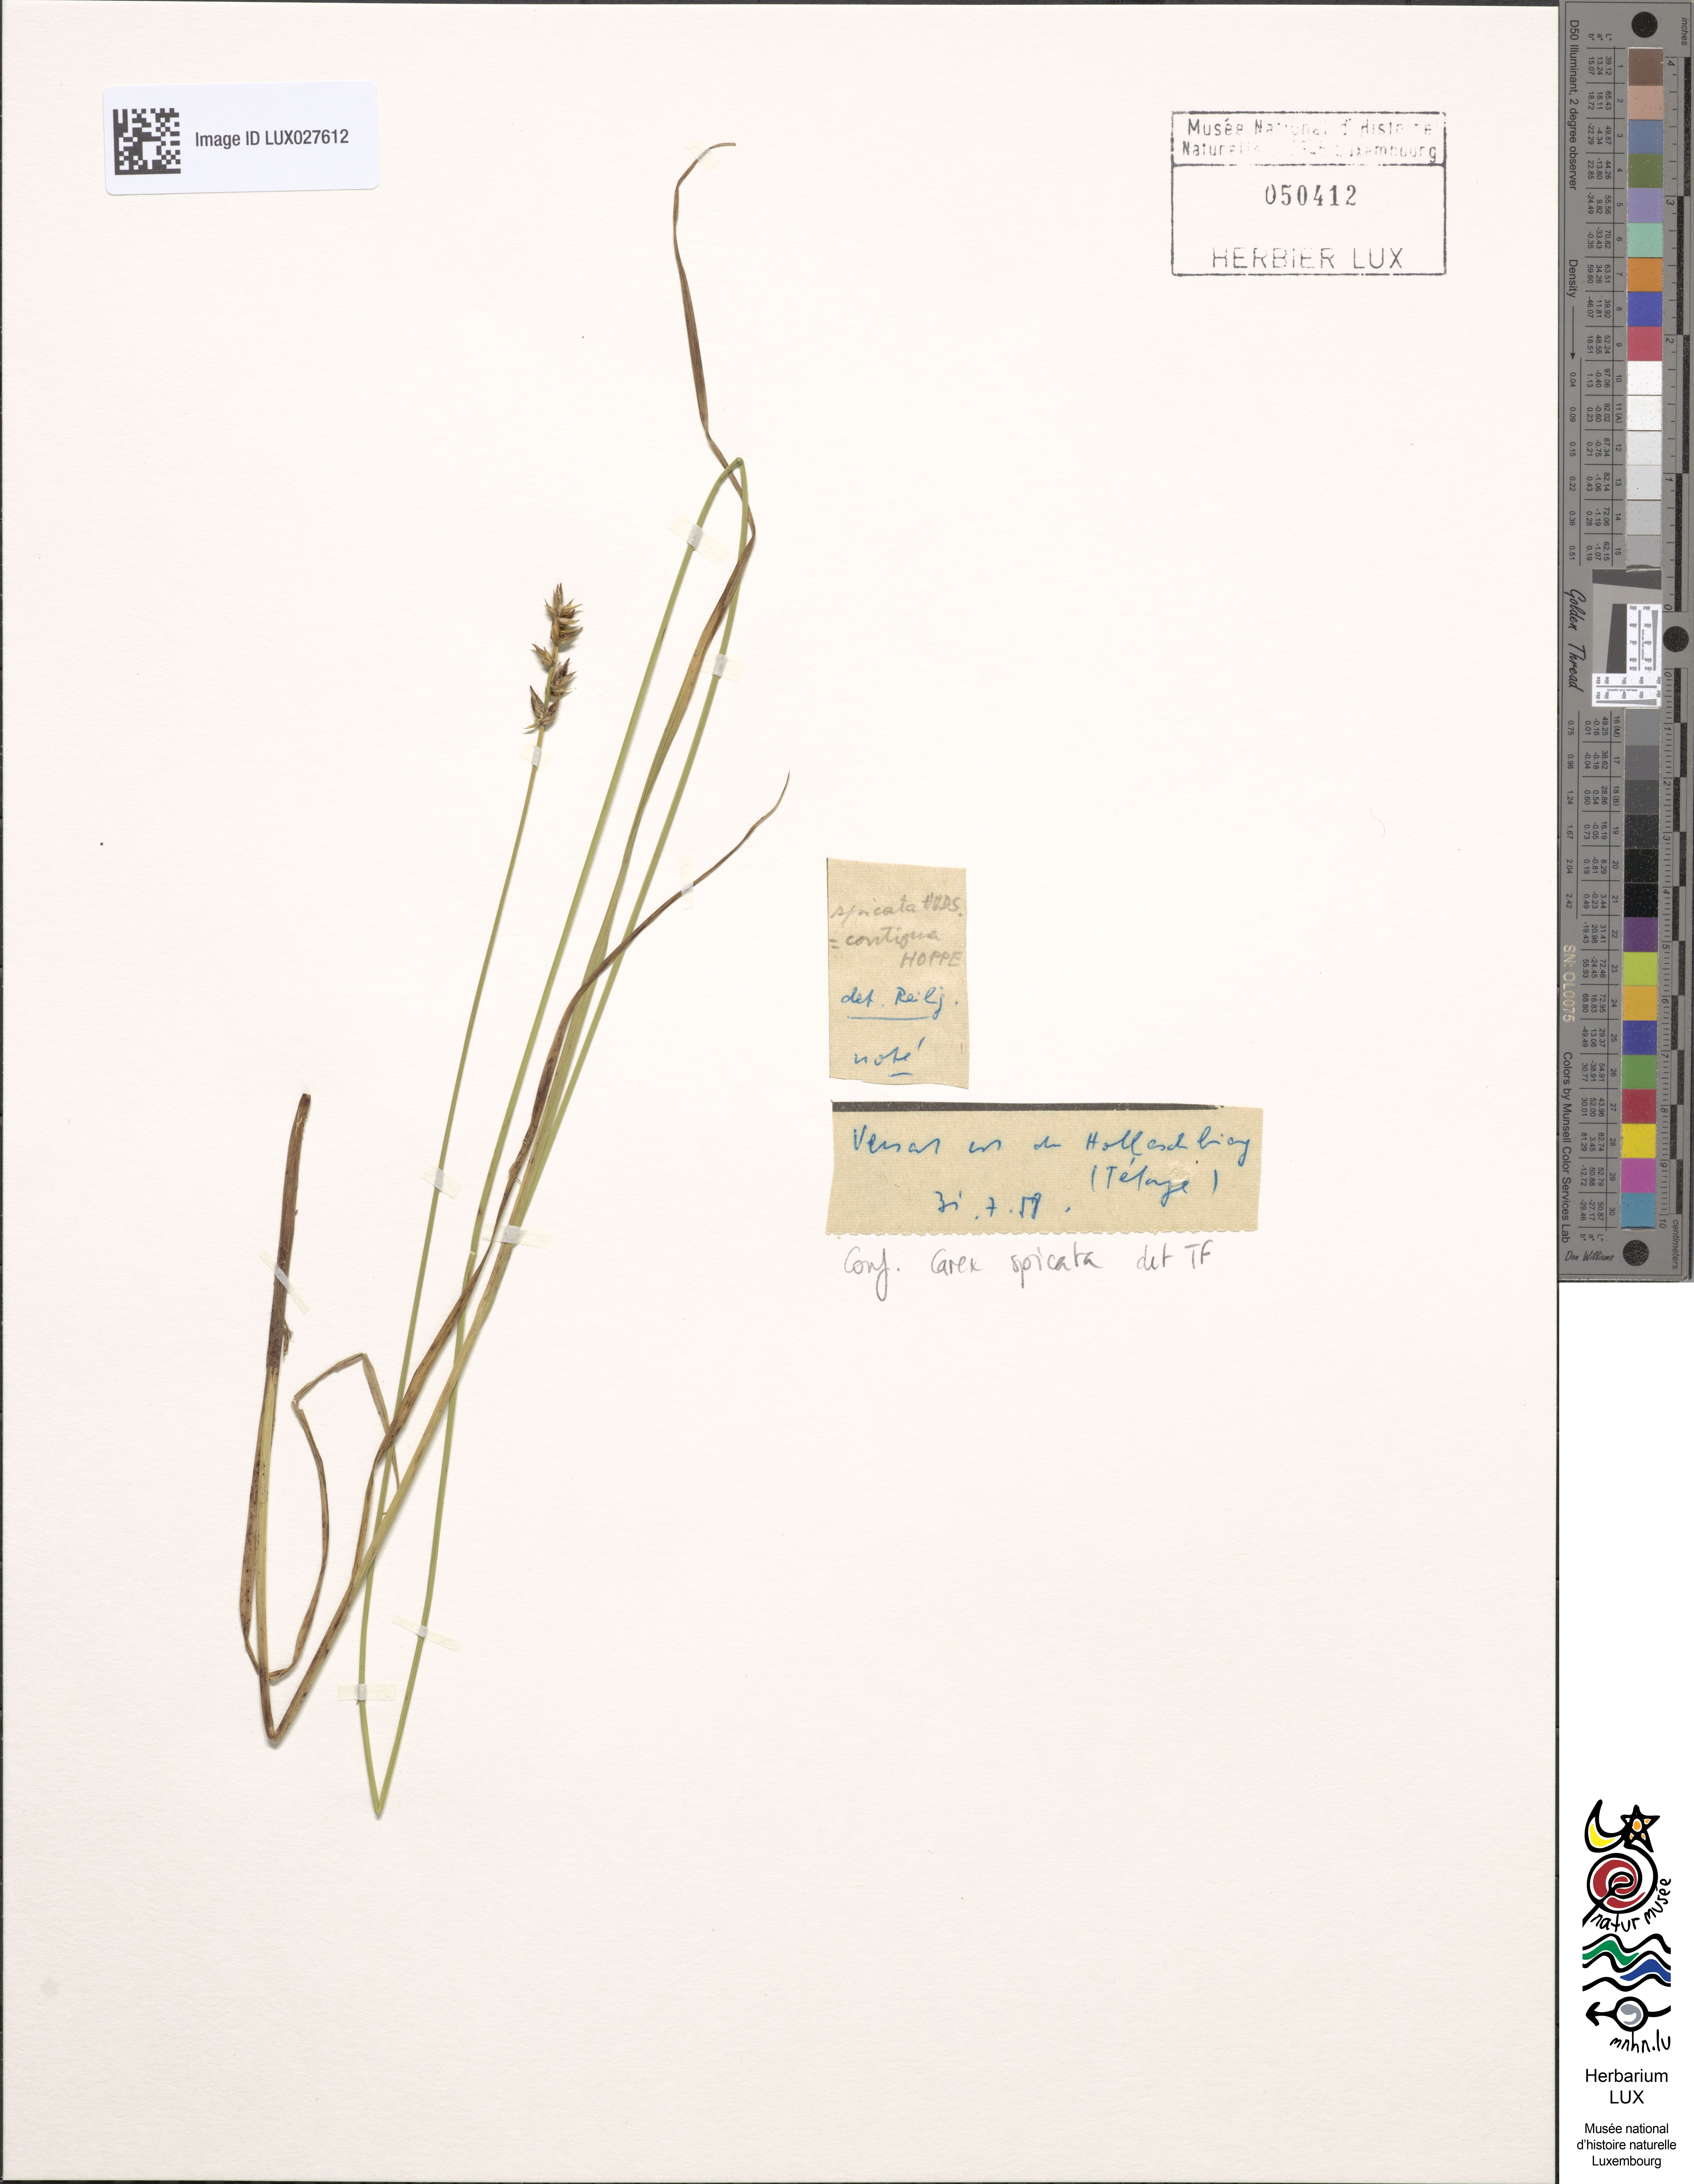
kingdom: Plantae
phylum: Tracheophyta
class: Liliopsida
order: Poales
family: Cyperaceae
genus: Carex
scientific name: Carex spicata
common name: Spiked sedge
